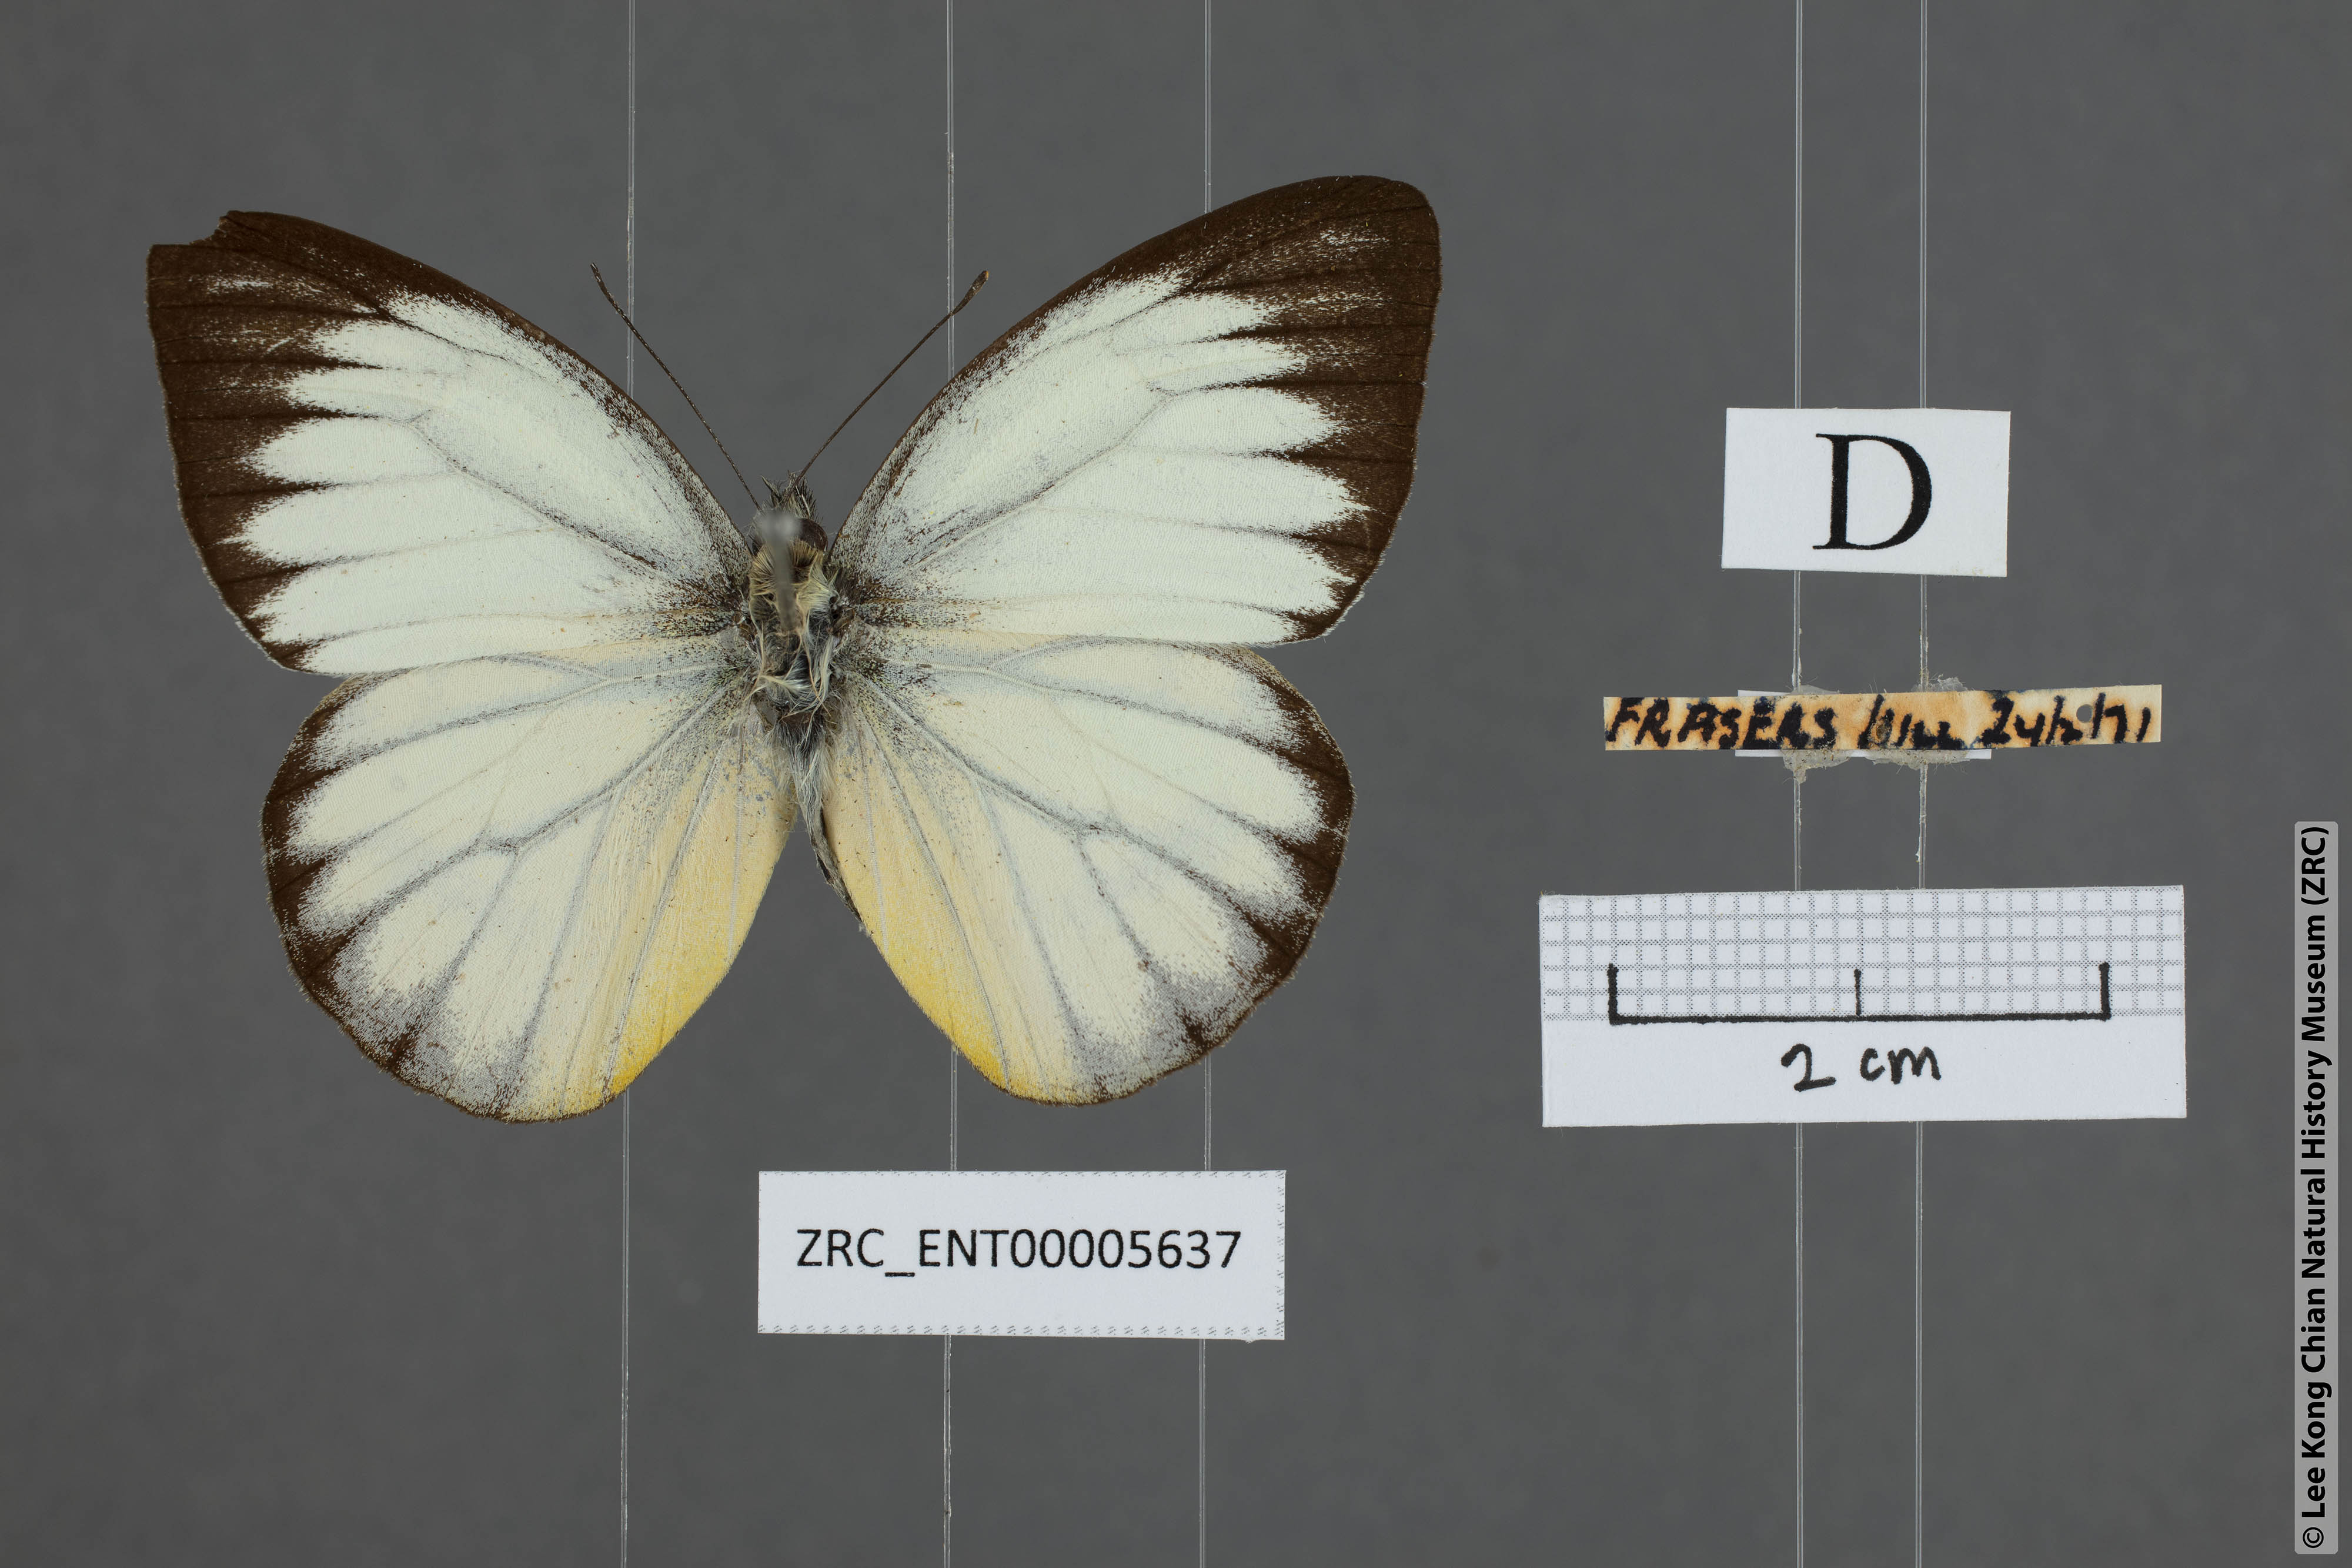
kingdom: Animalia
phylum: Arthropoda
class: Insecta
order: Lepidoptera
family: Pieridae
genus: Cepora
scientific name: Cepora nadina
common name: Lesser gull
